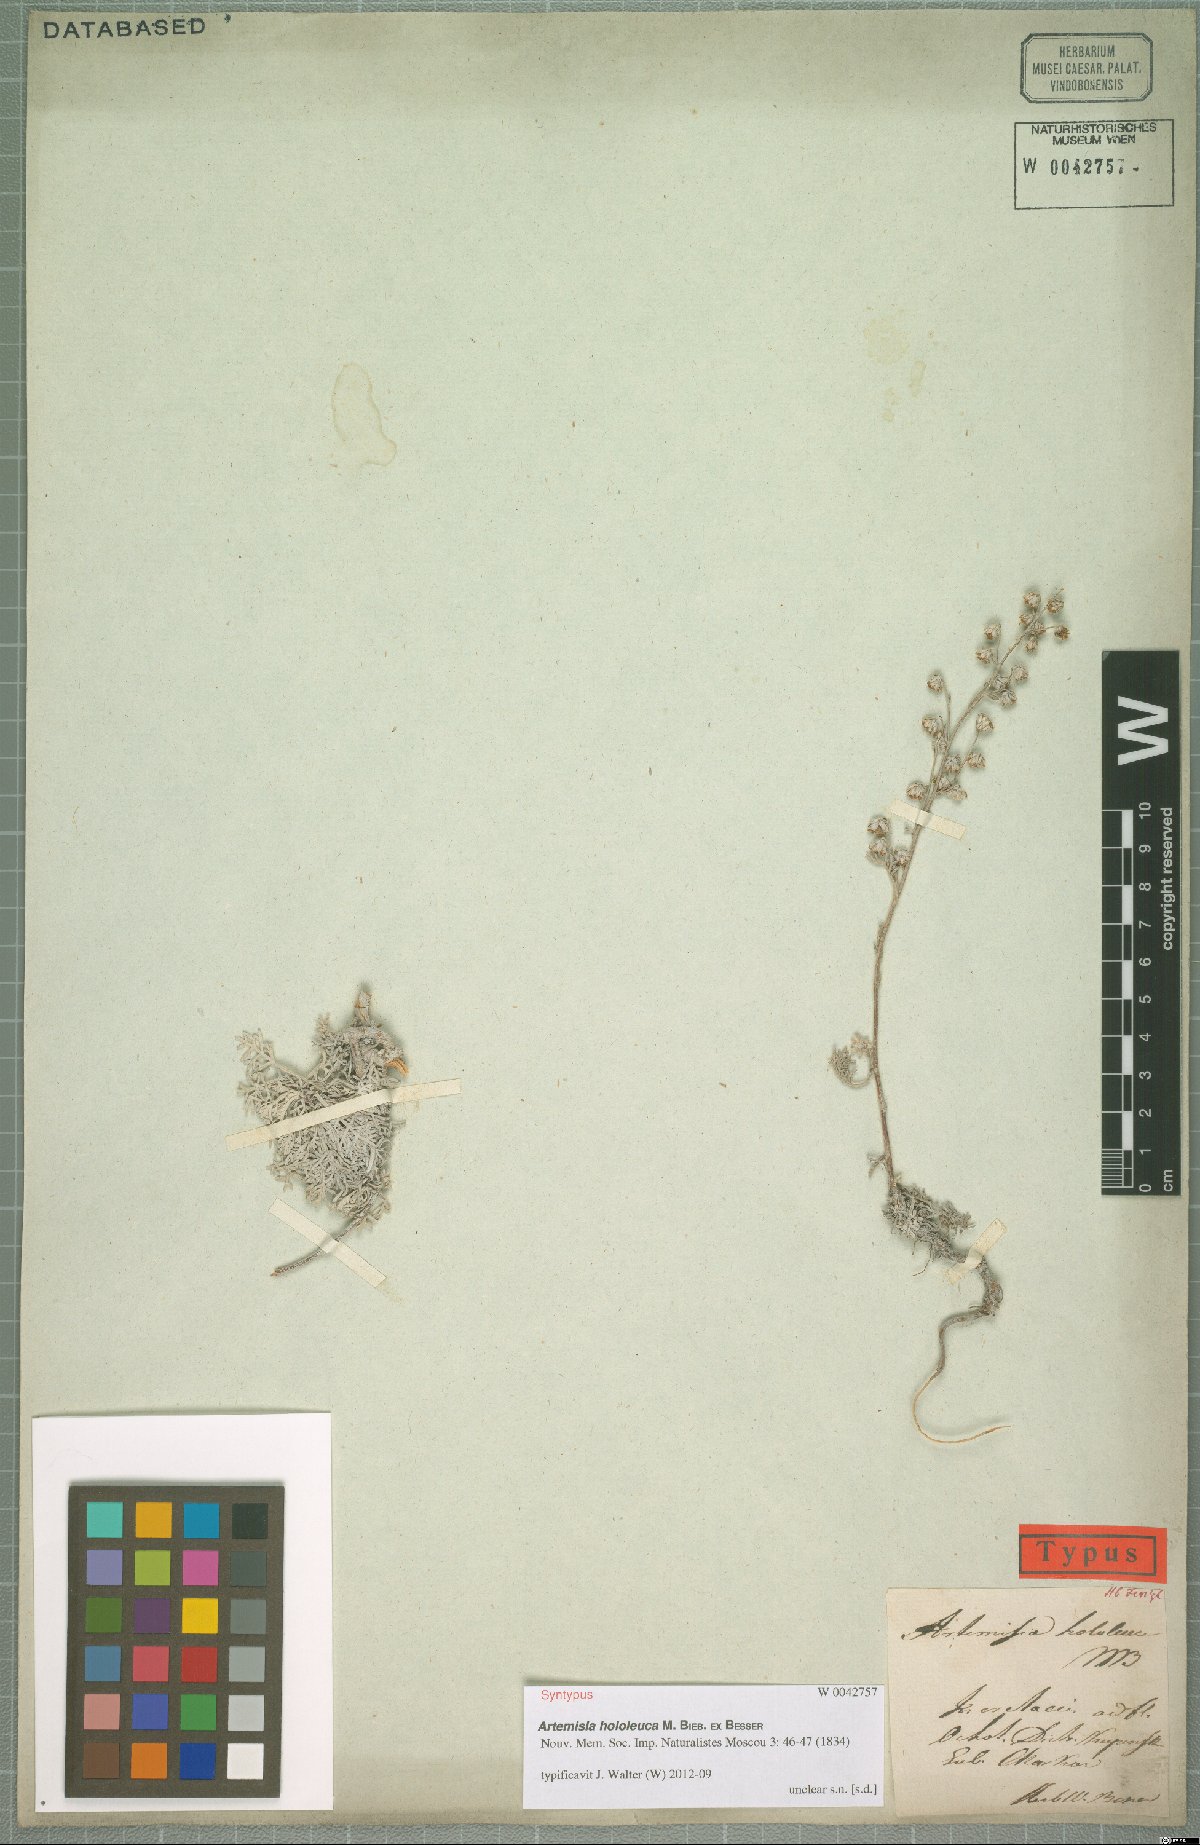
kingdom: Plantae
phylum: Tracheophyta
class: Magnoliopsida
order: Asterales
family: Asteraceae
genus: Artemisia
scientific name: Artemisia hololeuca
